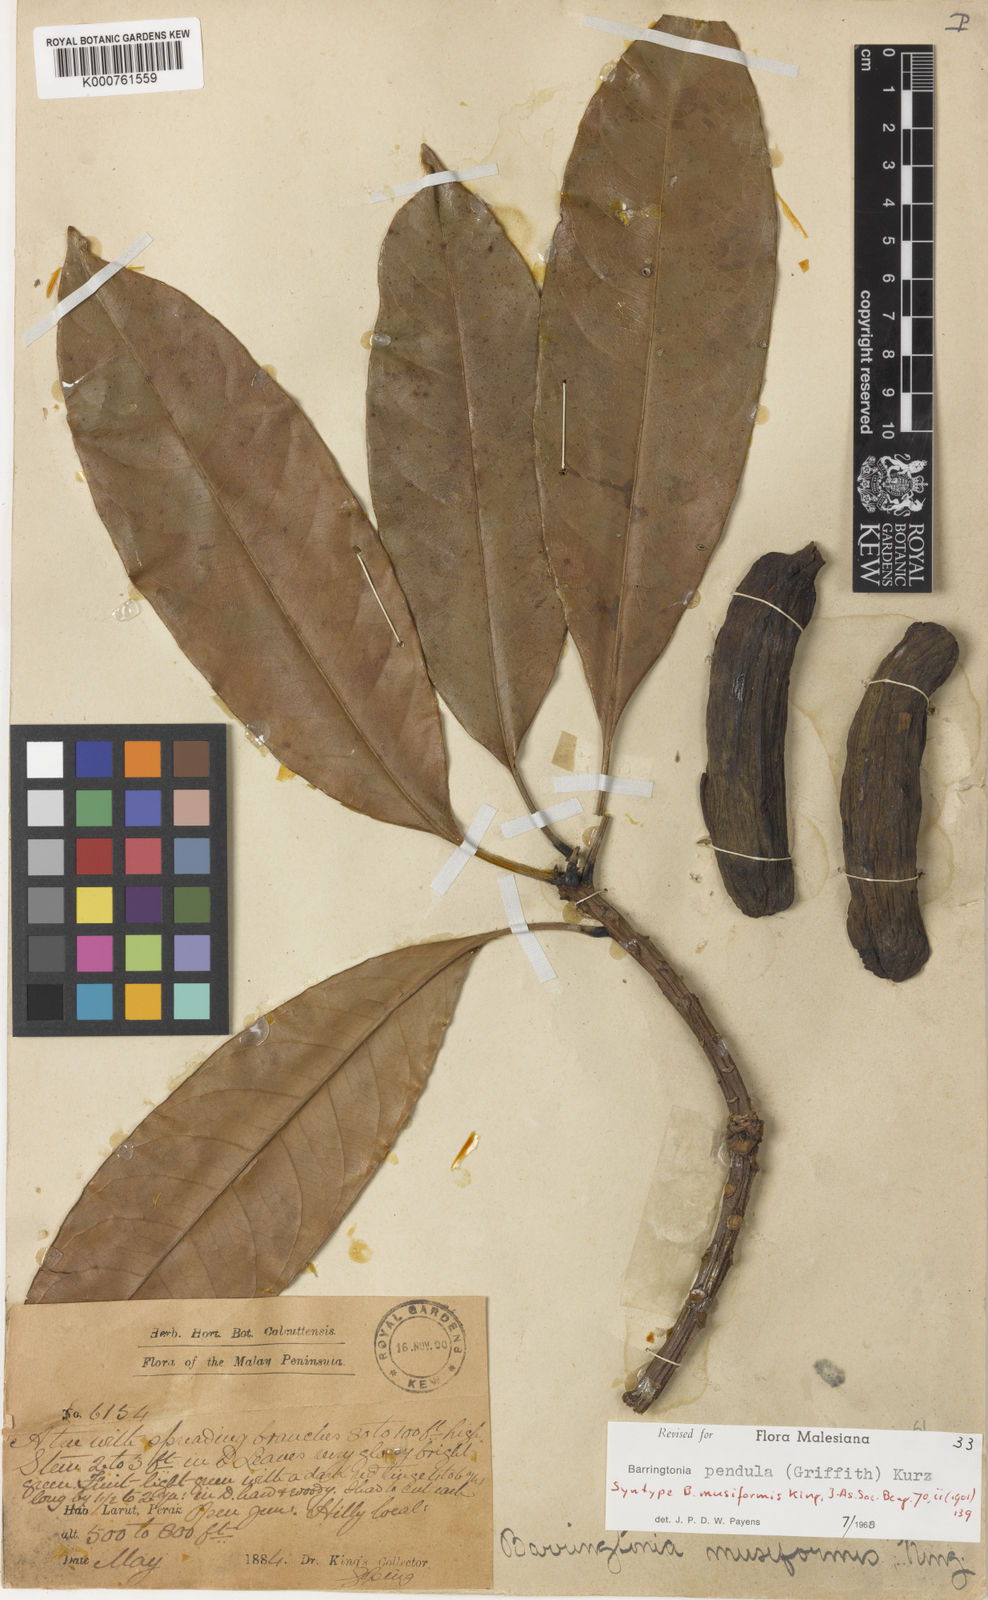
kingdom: Plantae
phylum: Tracheophyta
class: Magnoliopsida
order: Ericales
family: Lecythidaceae
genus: Barringtonia
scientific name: Barringtonia pendula
